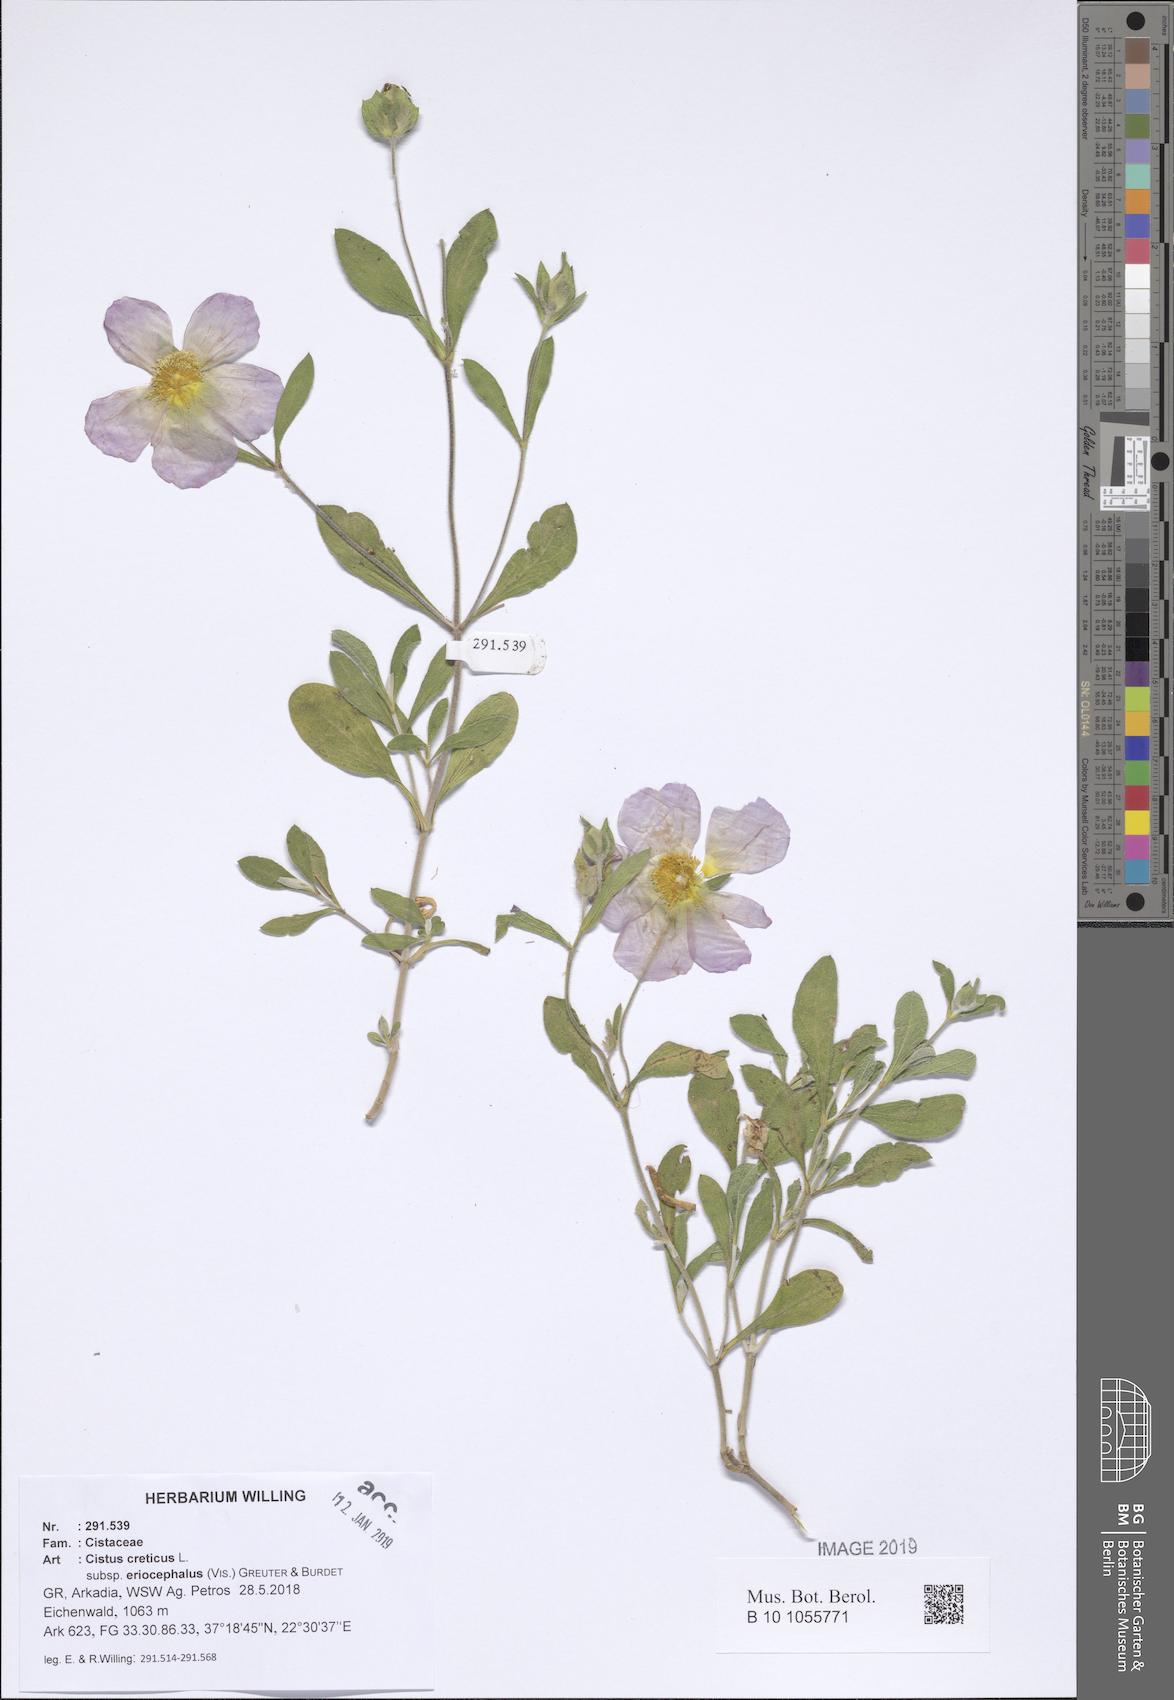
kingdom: Plantae
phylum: Tracheophyta
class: Magnoliopsida
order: Malvales
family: Cistaceae
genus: Cistus
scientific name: Cistus tauricus
